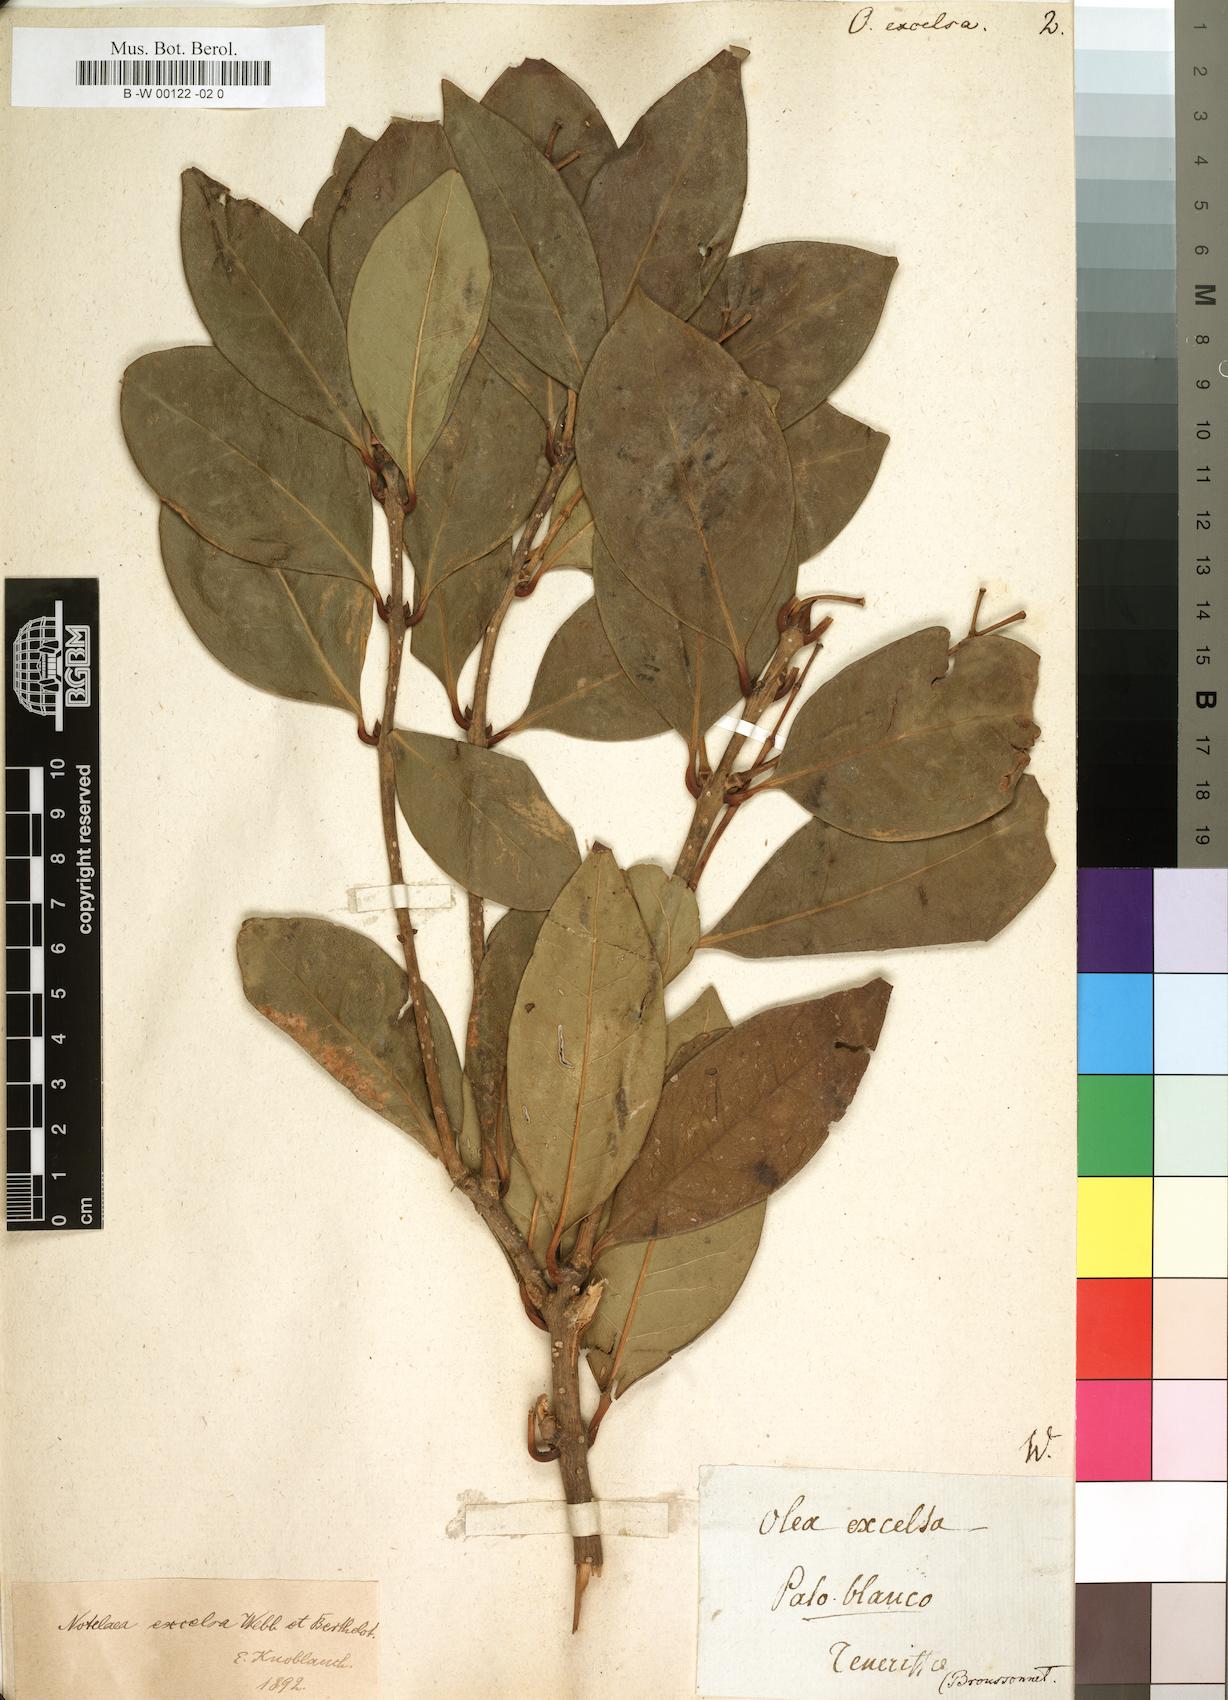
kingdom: Plantae
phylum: Tracheophyta
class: Magnoliopsida
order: Lamiales
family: Oleaceae
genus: Picconia
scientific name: Picconia excelsa
